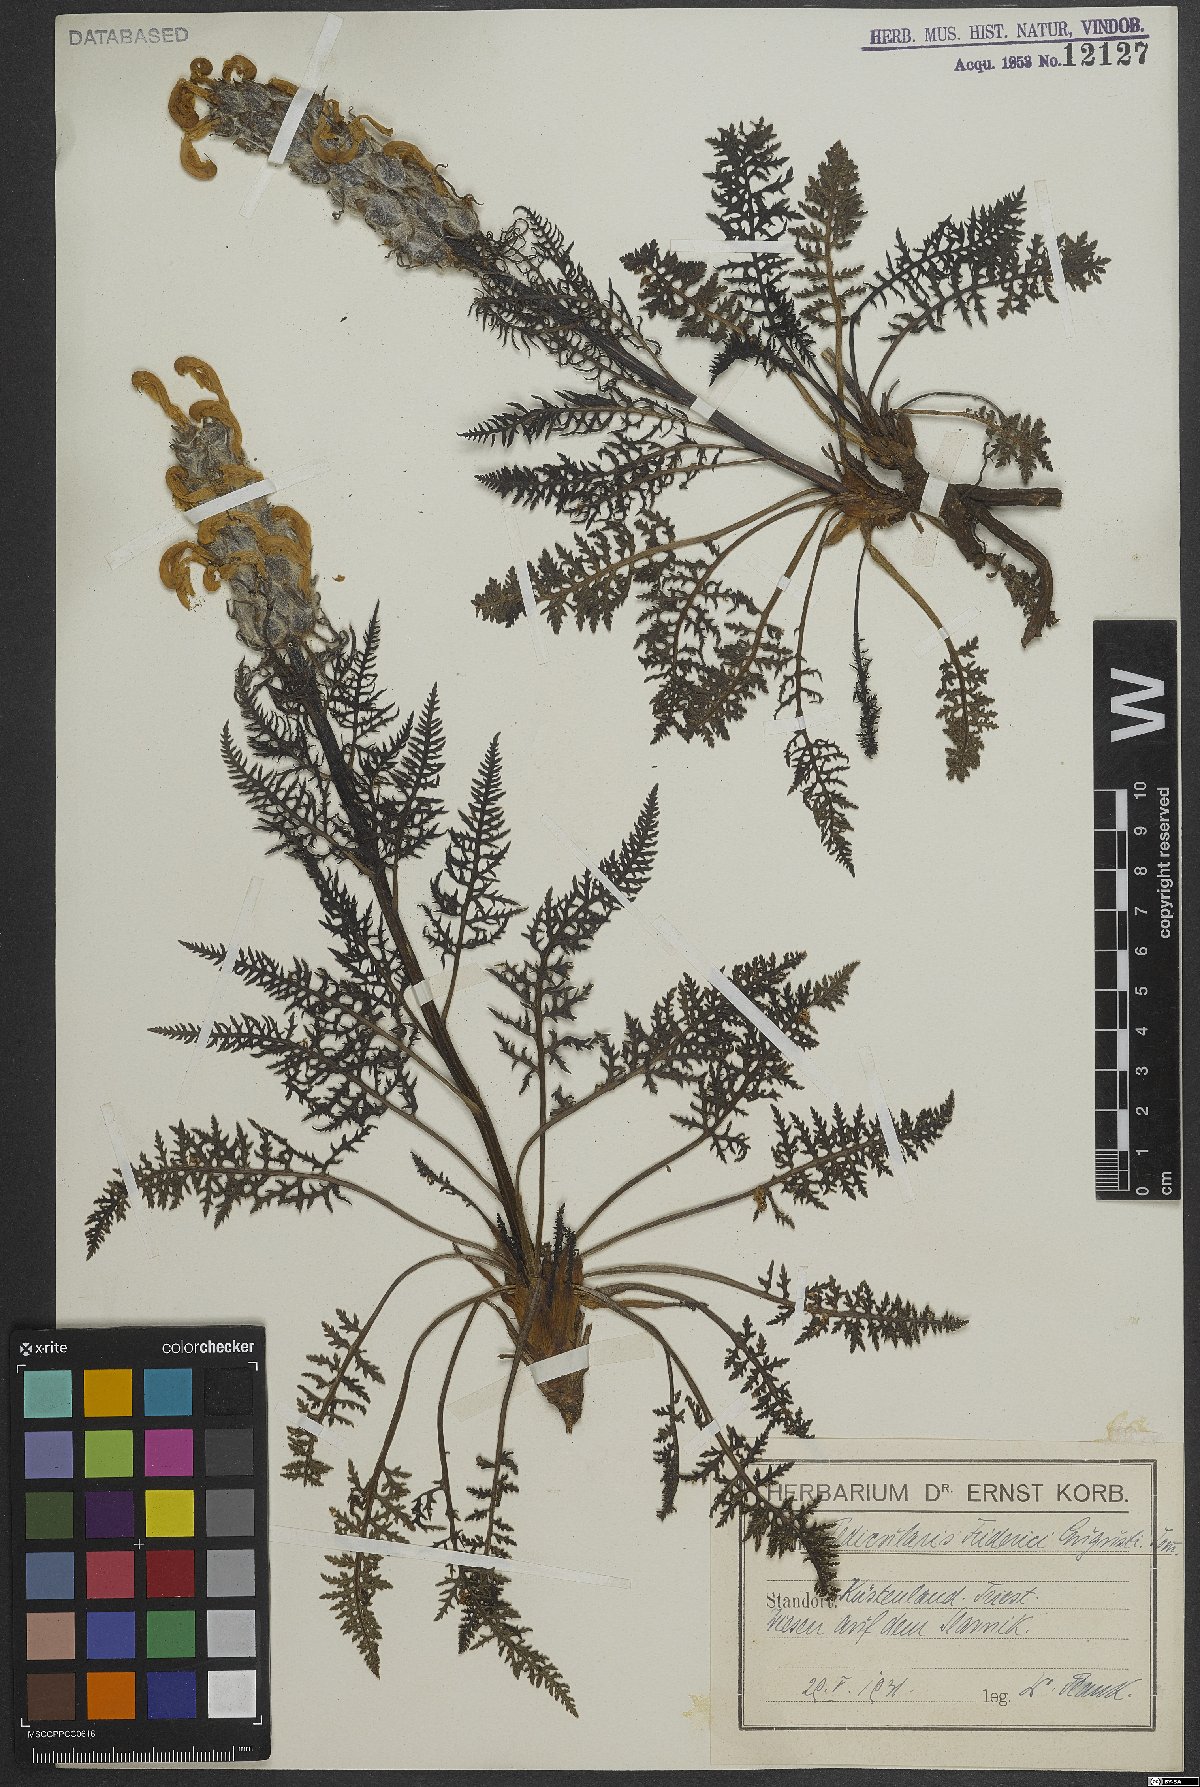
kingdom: Plantae
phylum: Tracheophyta
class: Magnoliopsida
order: Lamiales
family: Orobanchaceae
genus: Pedicularis
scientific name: Pedicularis friderici-augusti
